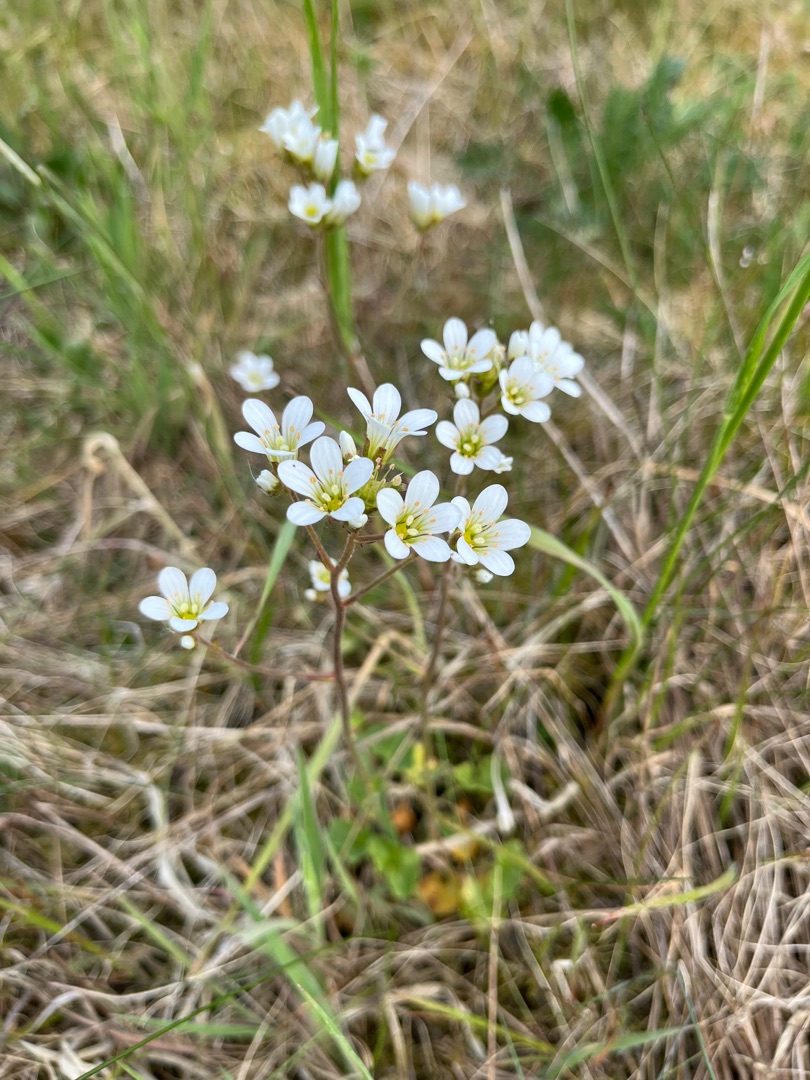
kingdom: Plantae
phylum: Tracheophyta
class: Magnoliopsida
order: Saxifragales
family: Saxifragaceae
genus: Saxifraga
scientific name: Saxifraga granulata
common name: Kornet stenbræk
